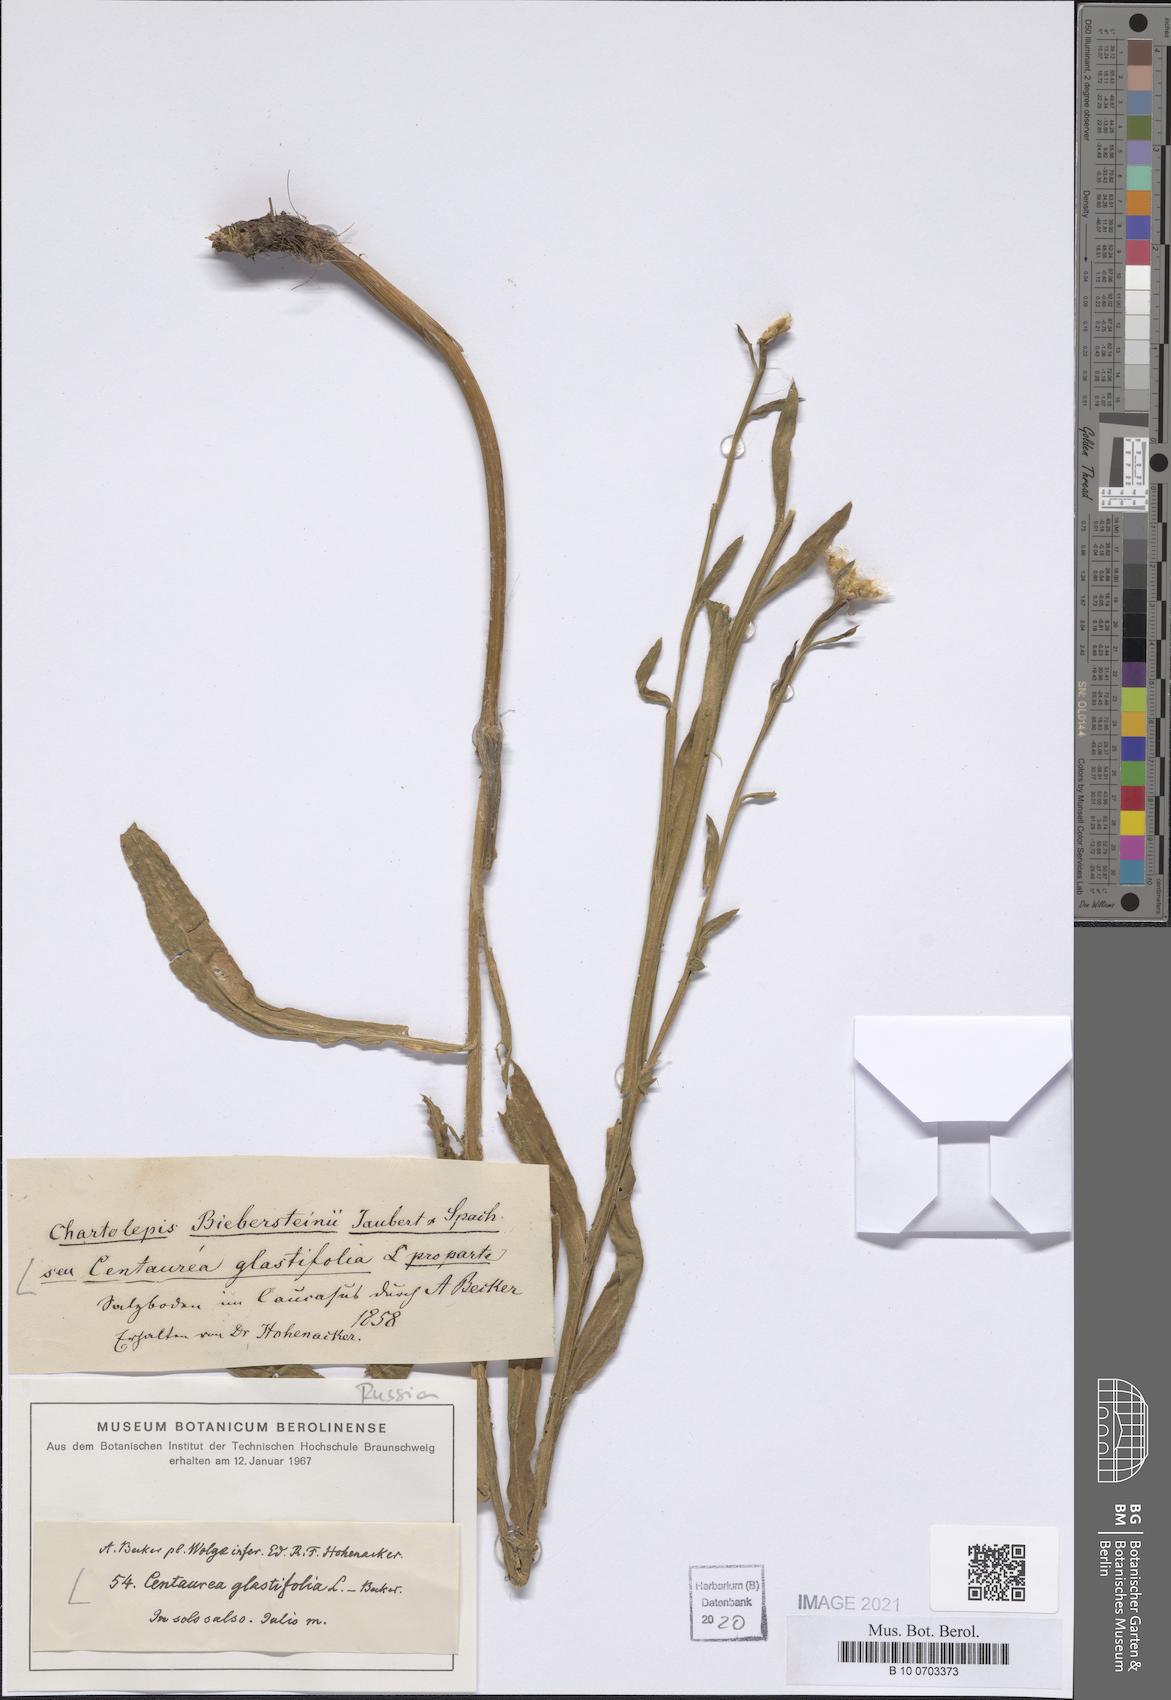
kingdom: Plantae
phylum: Tracheophyta
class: Magnoliopsida
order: Asterales
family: Asteraceae
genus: Centaurea
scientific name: Centaurea glastifolia
